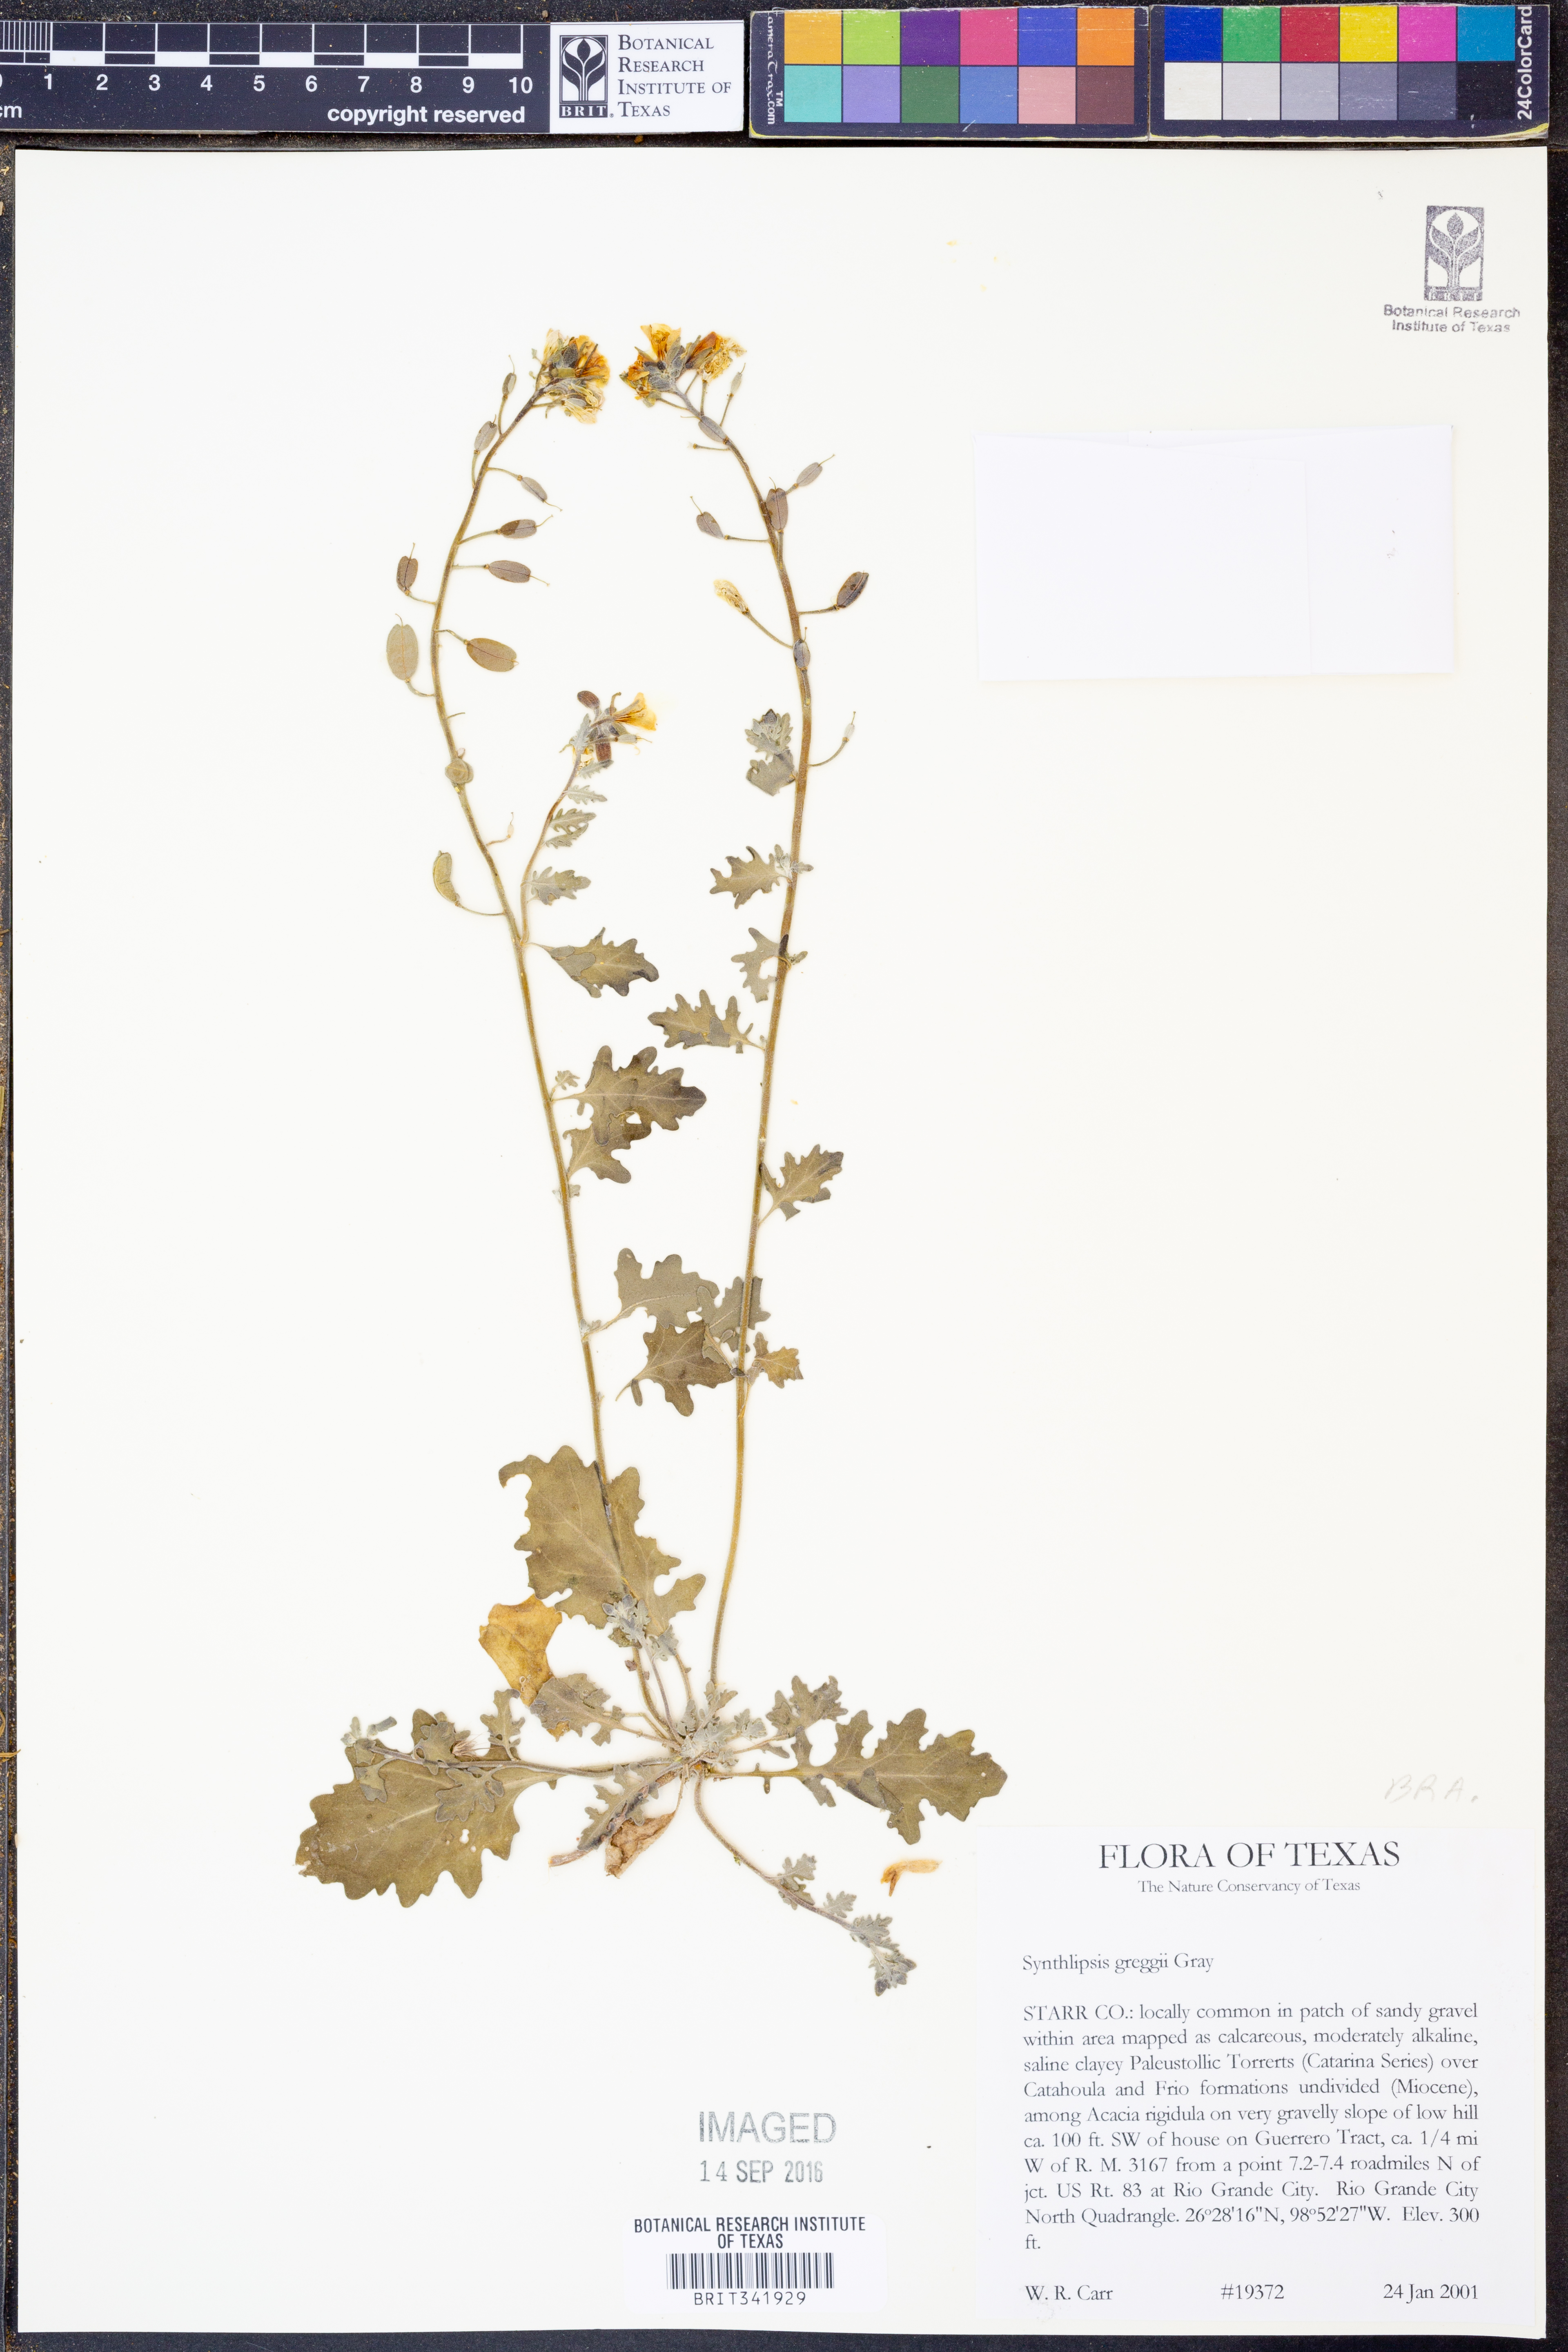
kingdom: Plantae
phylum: Tracheophyta
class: Magnoliopsida
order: Brassicales
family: Brassicaceae
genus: Synthlipsis
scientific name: Synthlipsis greggii
